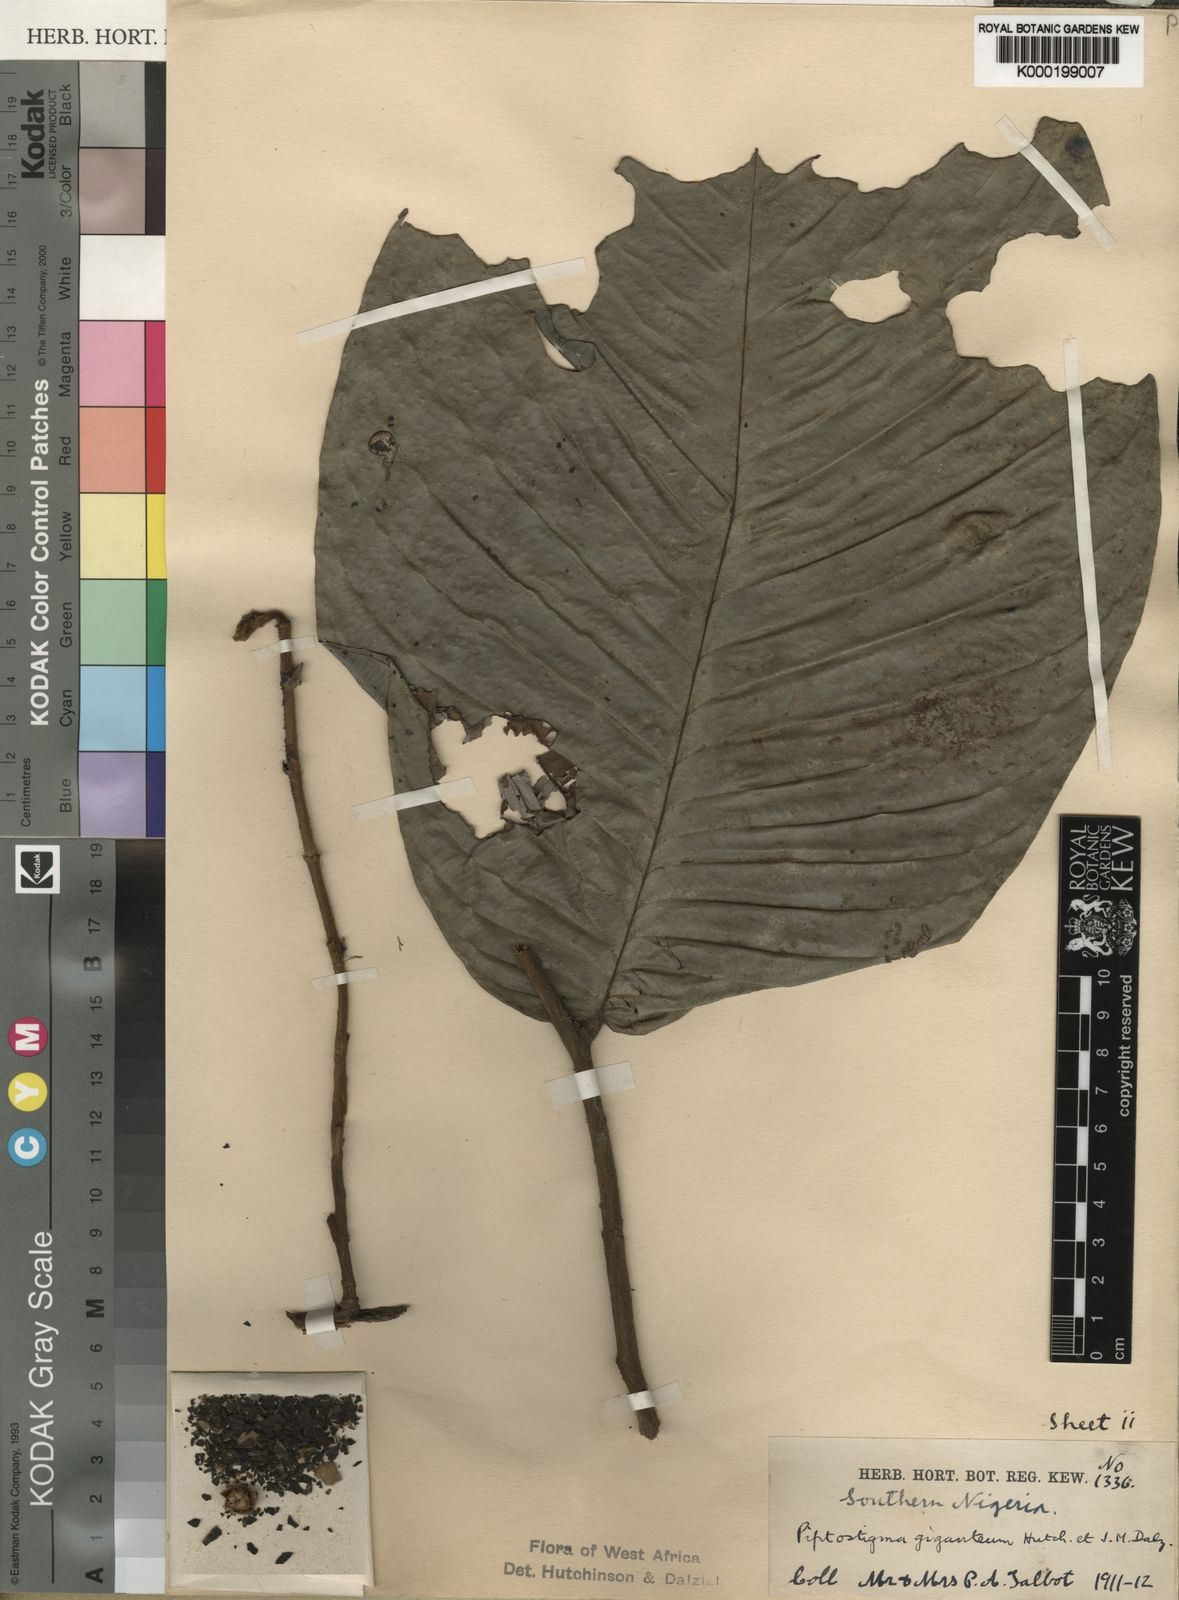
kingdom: Plantae
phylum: Tracheophyta
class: Magnoliopsida
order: Magnoliales
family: Annonaceae
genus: Piptostigma
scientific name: Piptostigma giganteum
